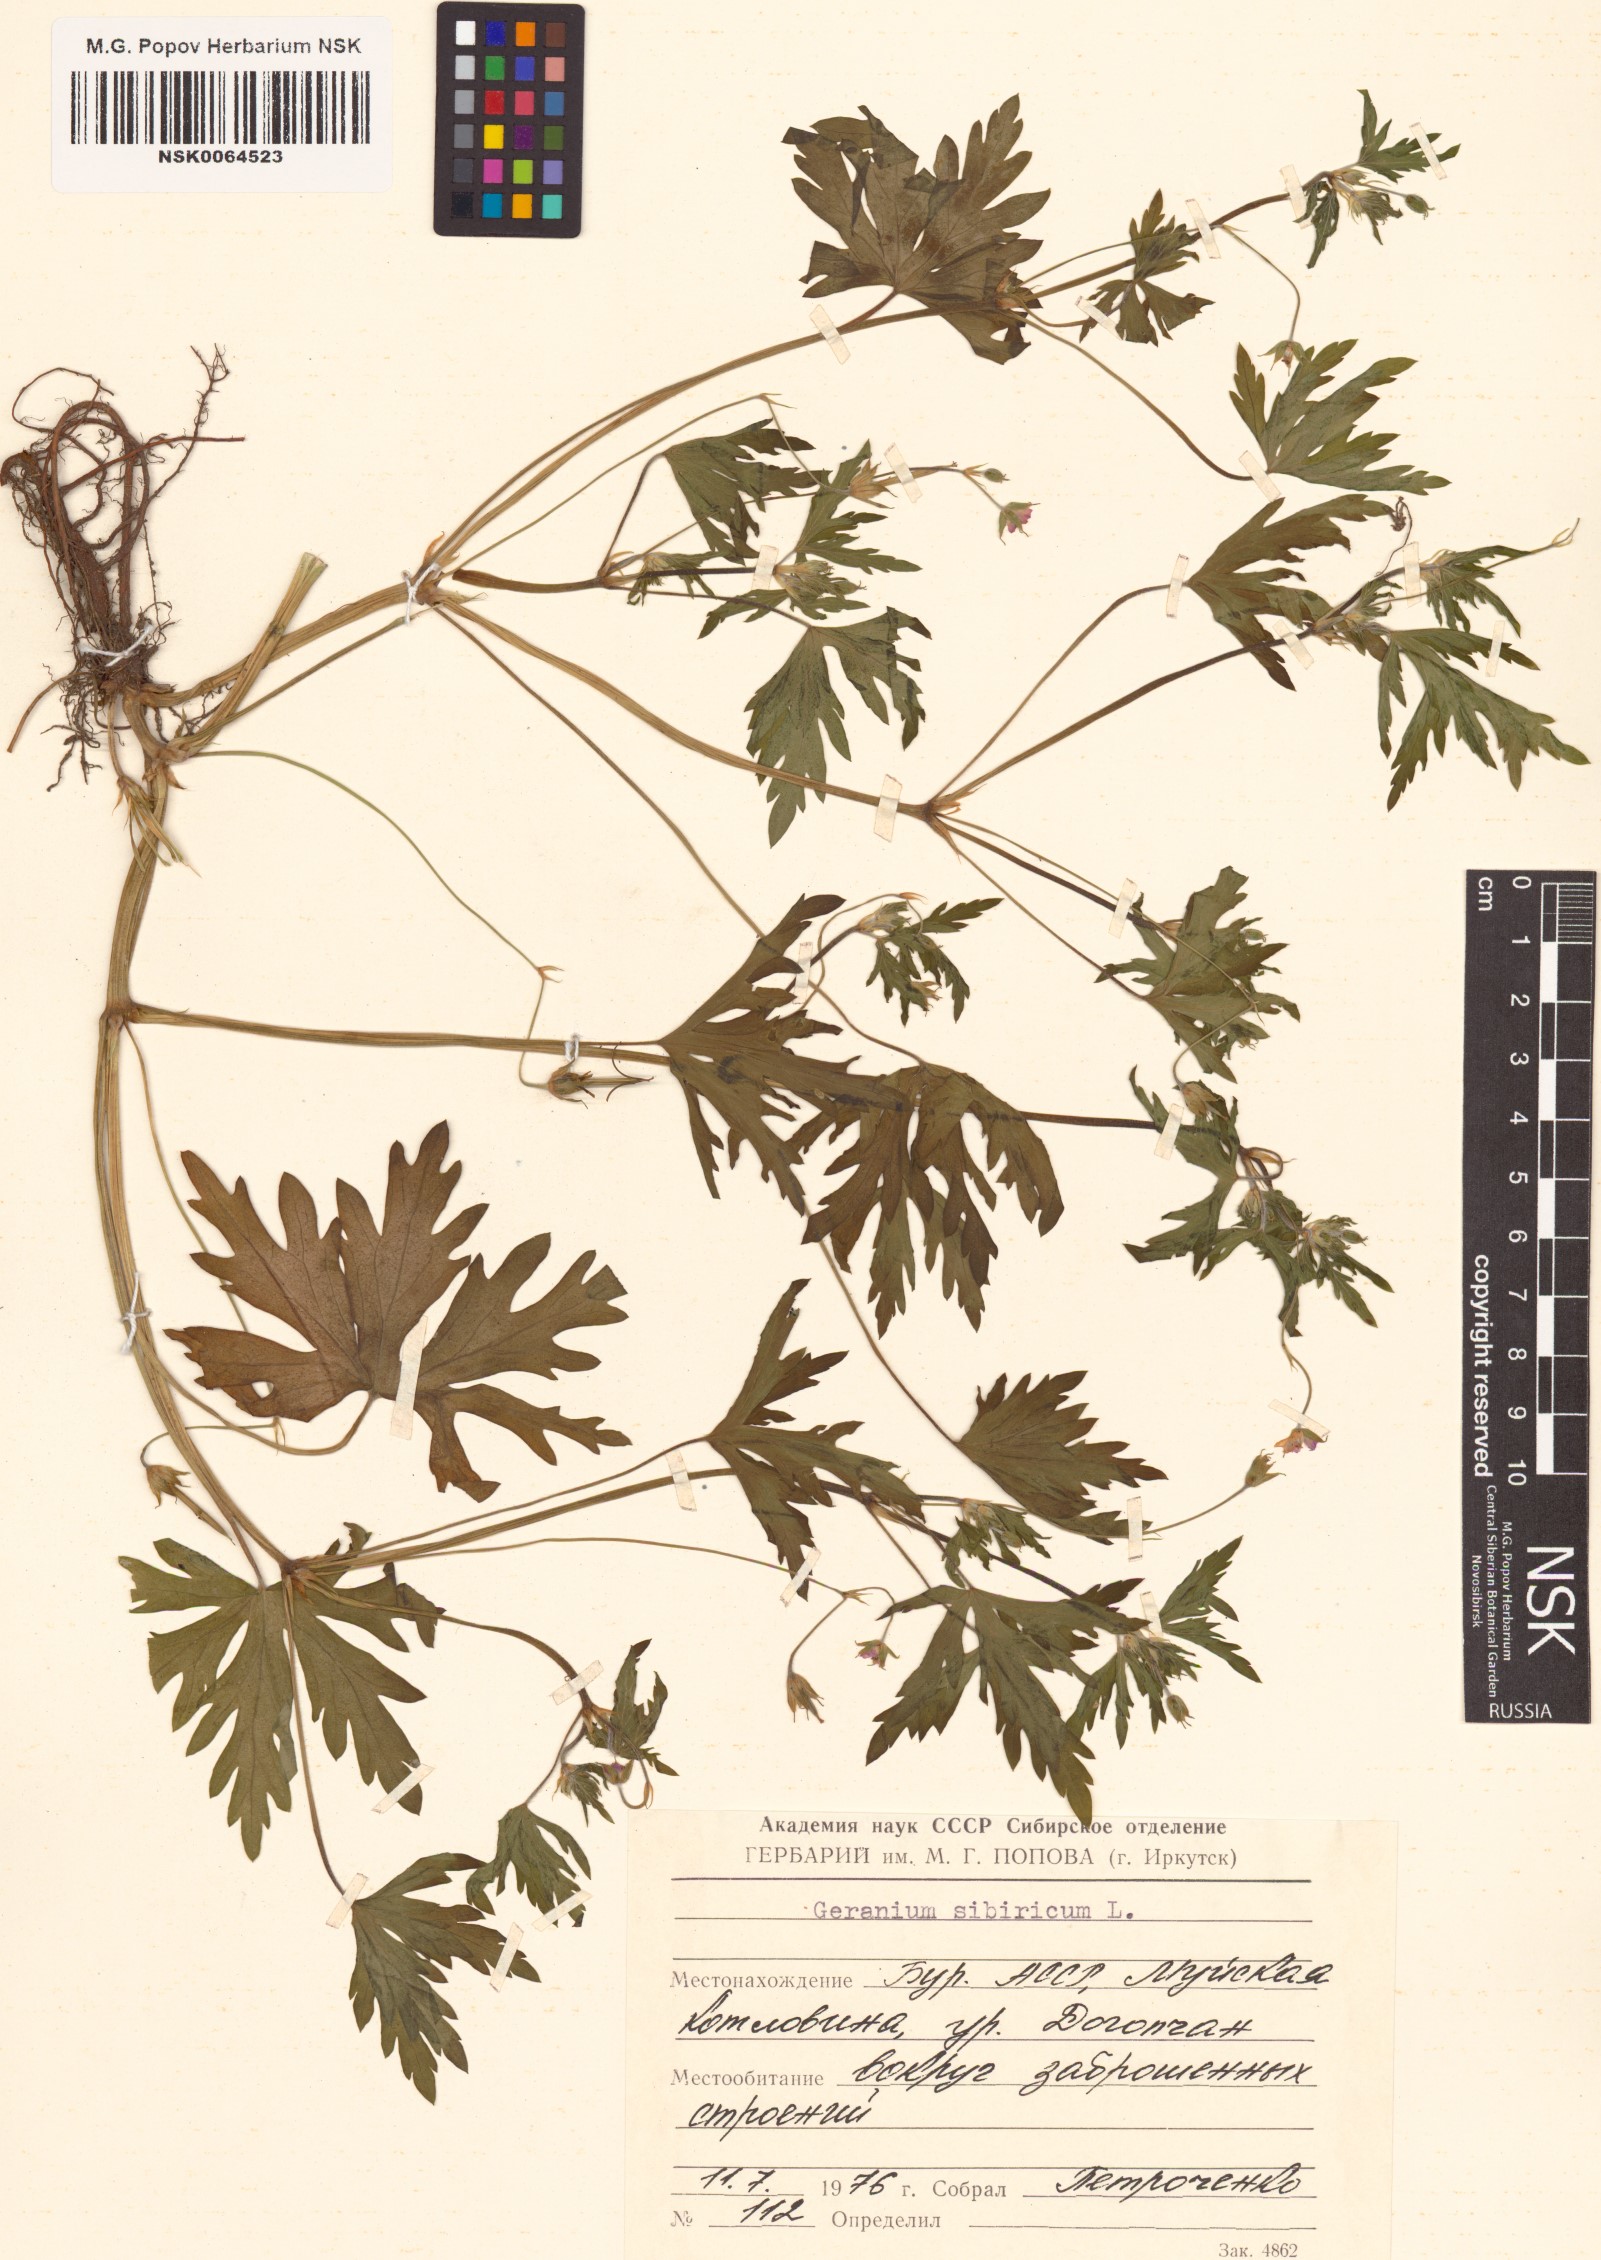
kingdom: Plantae
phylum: Tracheophyta
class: Magnoliopsida
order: Geraniales
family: Geraniaceae
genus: Geranium
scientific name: Geranium sibiricum
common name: Siberian crane's-bill
